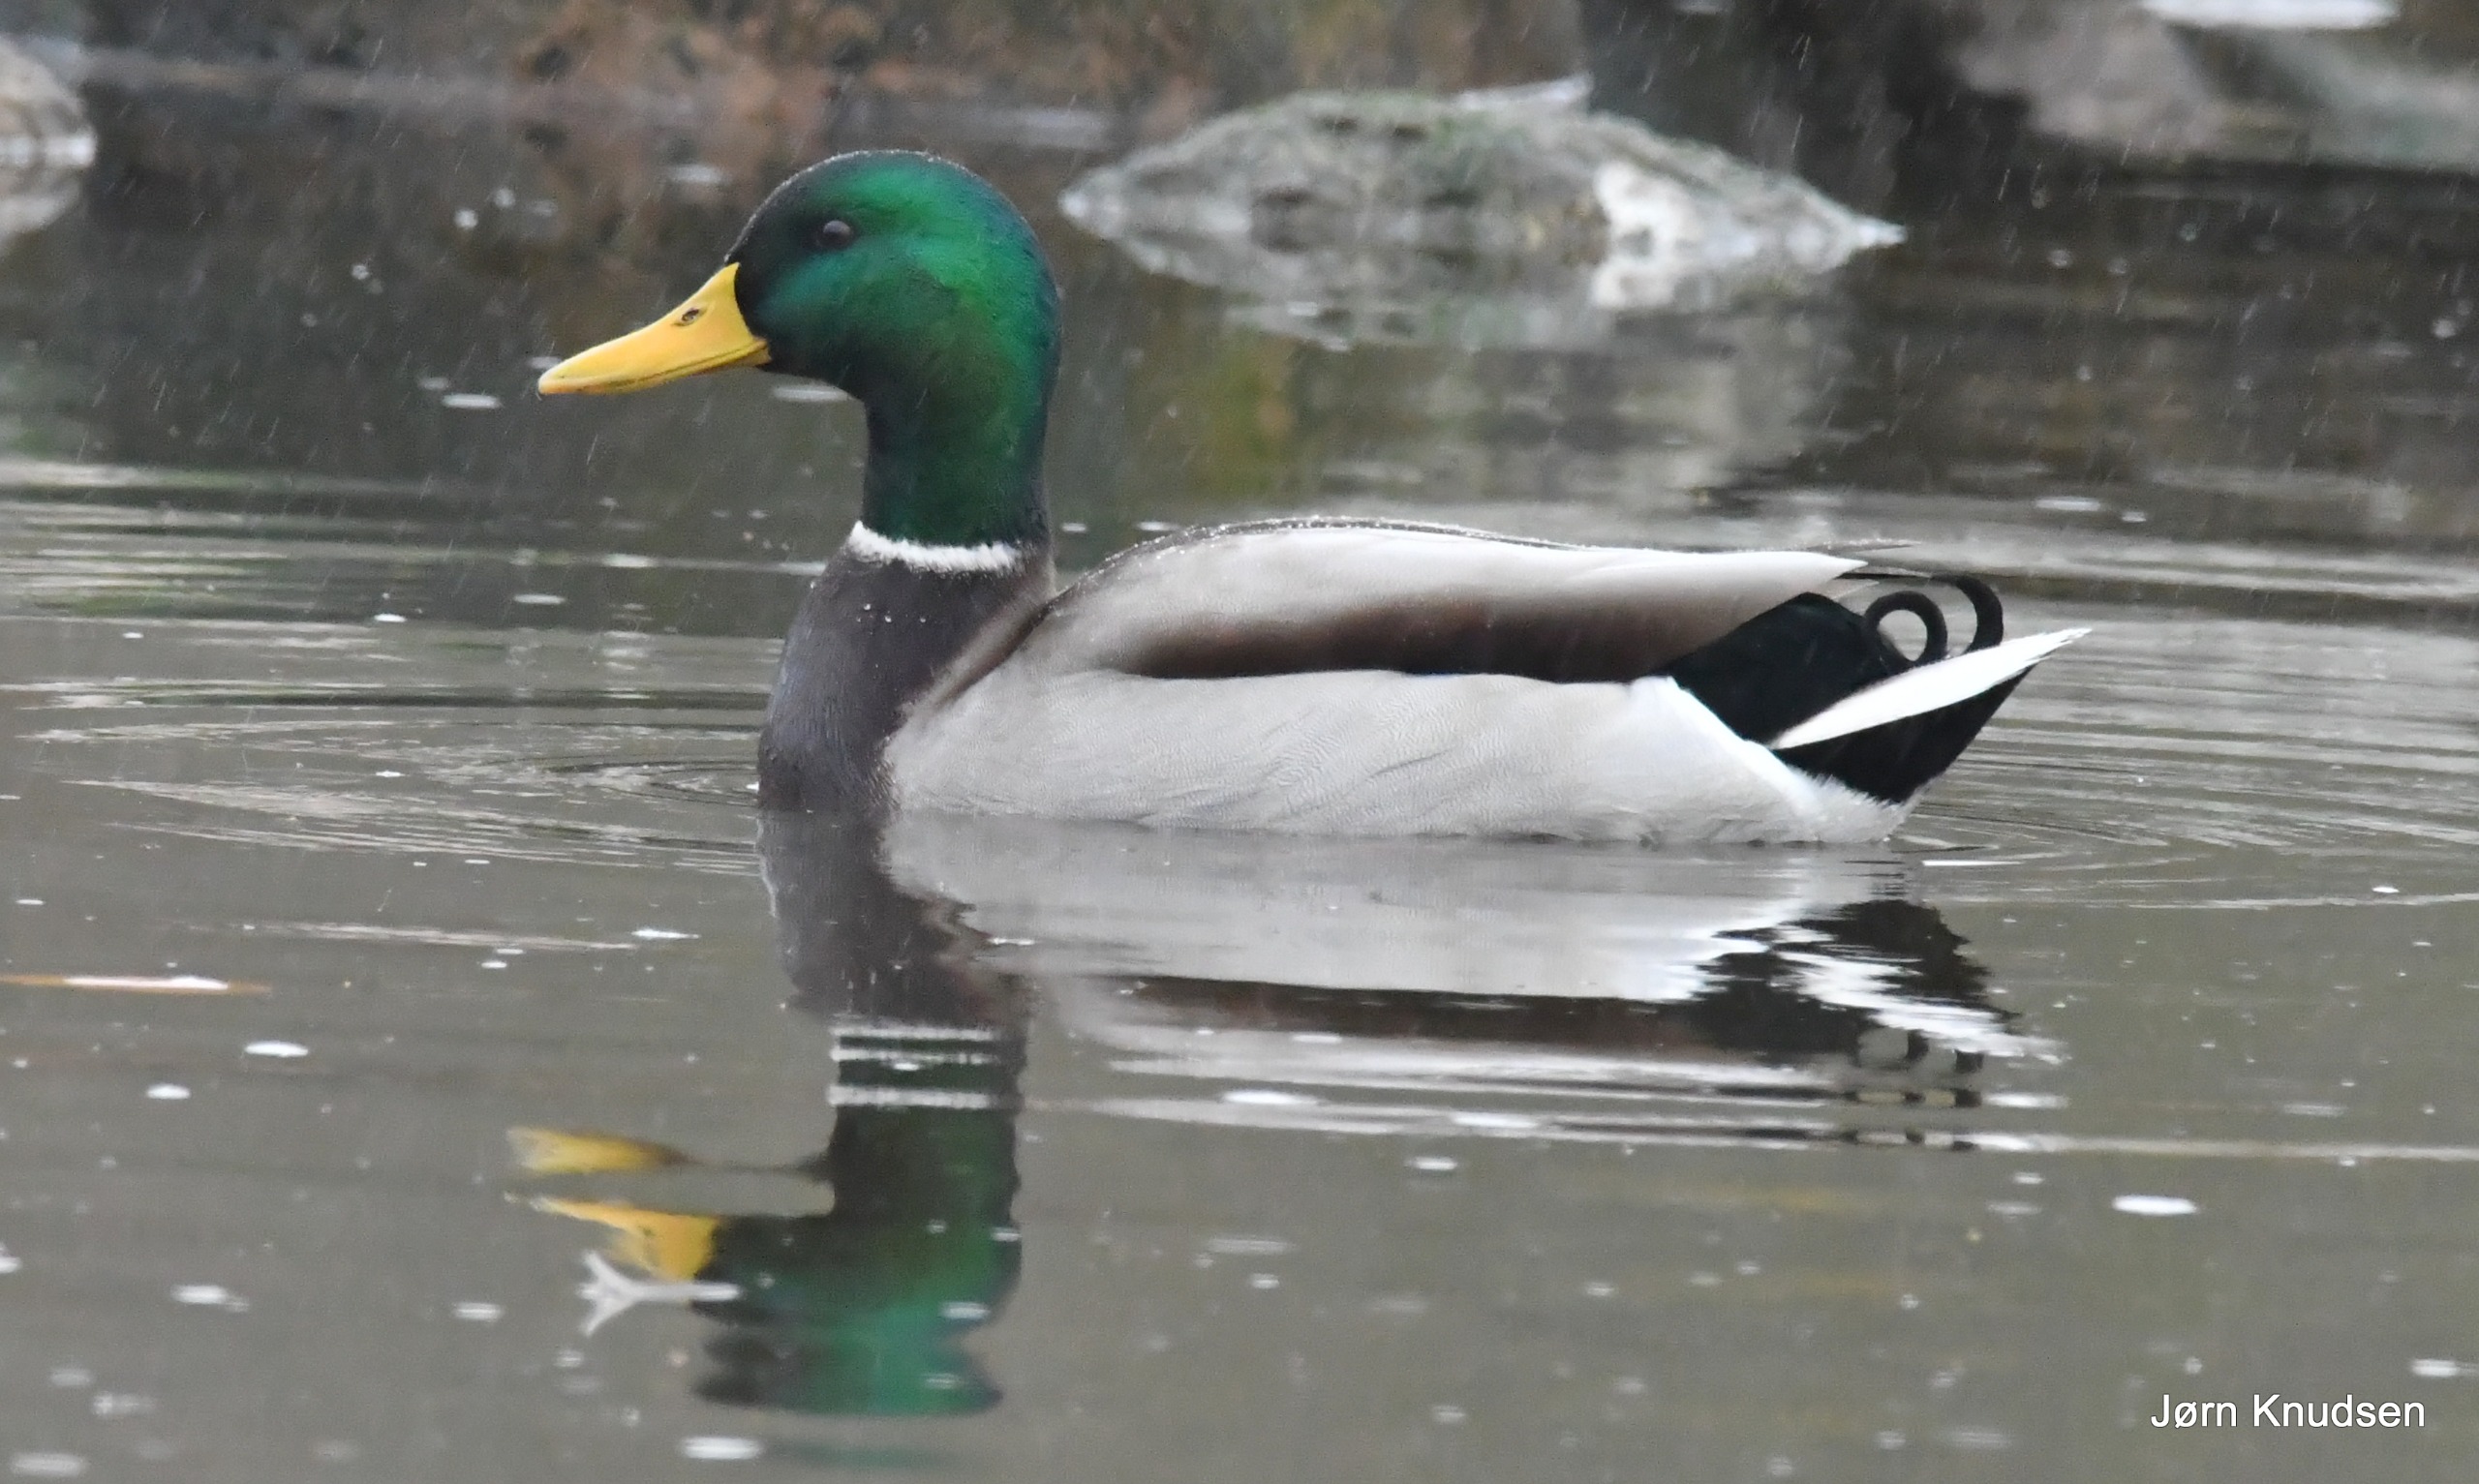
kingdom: Animalia
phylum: Chordata
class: Aves
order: Anseriformes
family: Anatidae
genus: Anas
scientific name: Anas platyrhynchos
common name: Gråand
